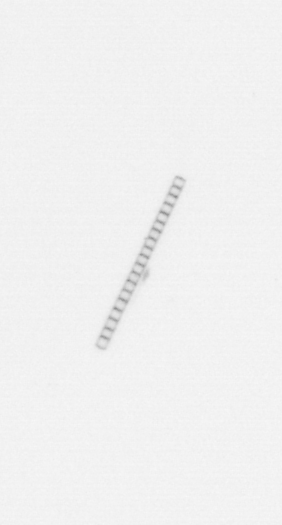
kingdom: Chromista
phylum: Ochrophyta
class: Bacillariophyceae
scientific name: Bacillariophyceae
